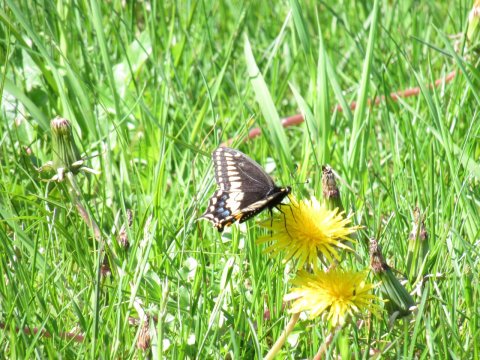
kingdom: Animalia
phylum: Arthropoda
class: Insecta
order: Lepidoptera
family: Papilionidae
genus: Papilio
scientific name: Papilio polyxenes
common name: Black Swallowtail
